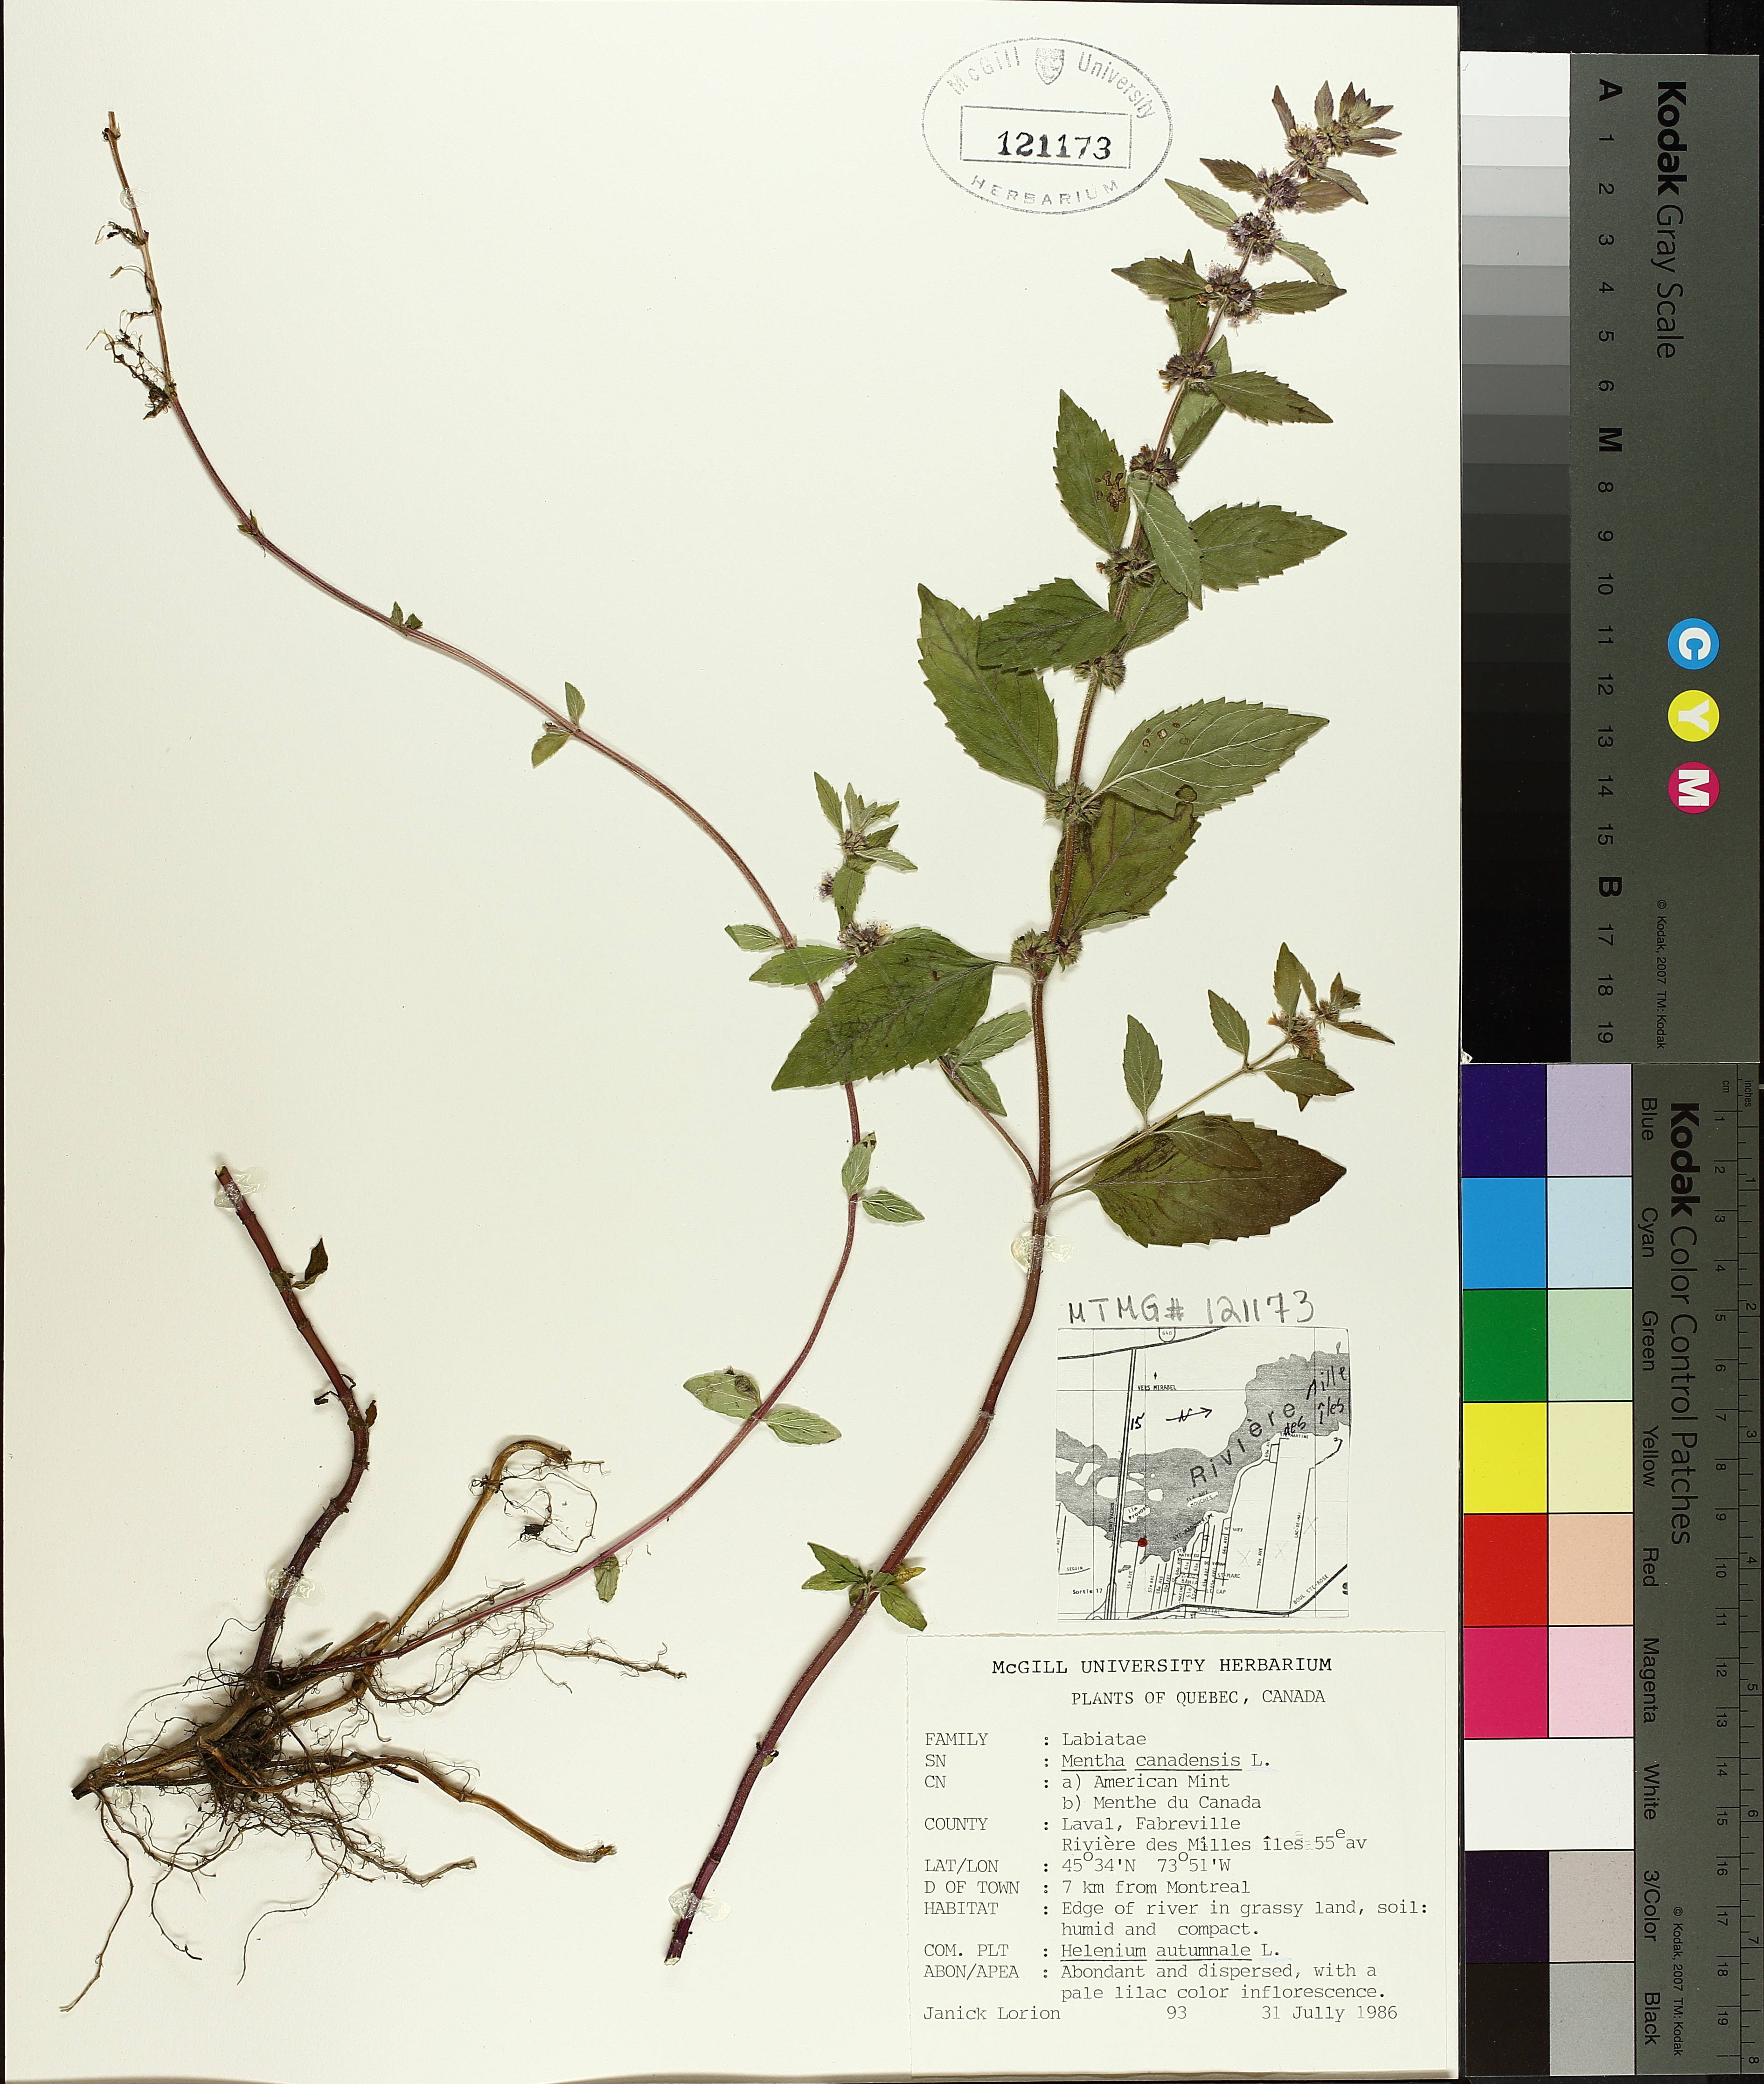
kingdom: Plantae
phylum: Tracheophyta
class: Magnoliopsida
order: Lamiales
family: Lamiaceae
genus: Mentha
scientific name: Mentha canadensis
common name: American corn mint
